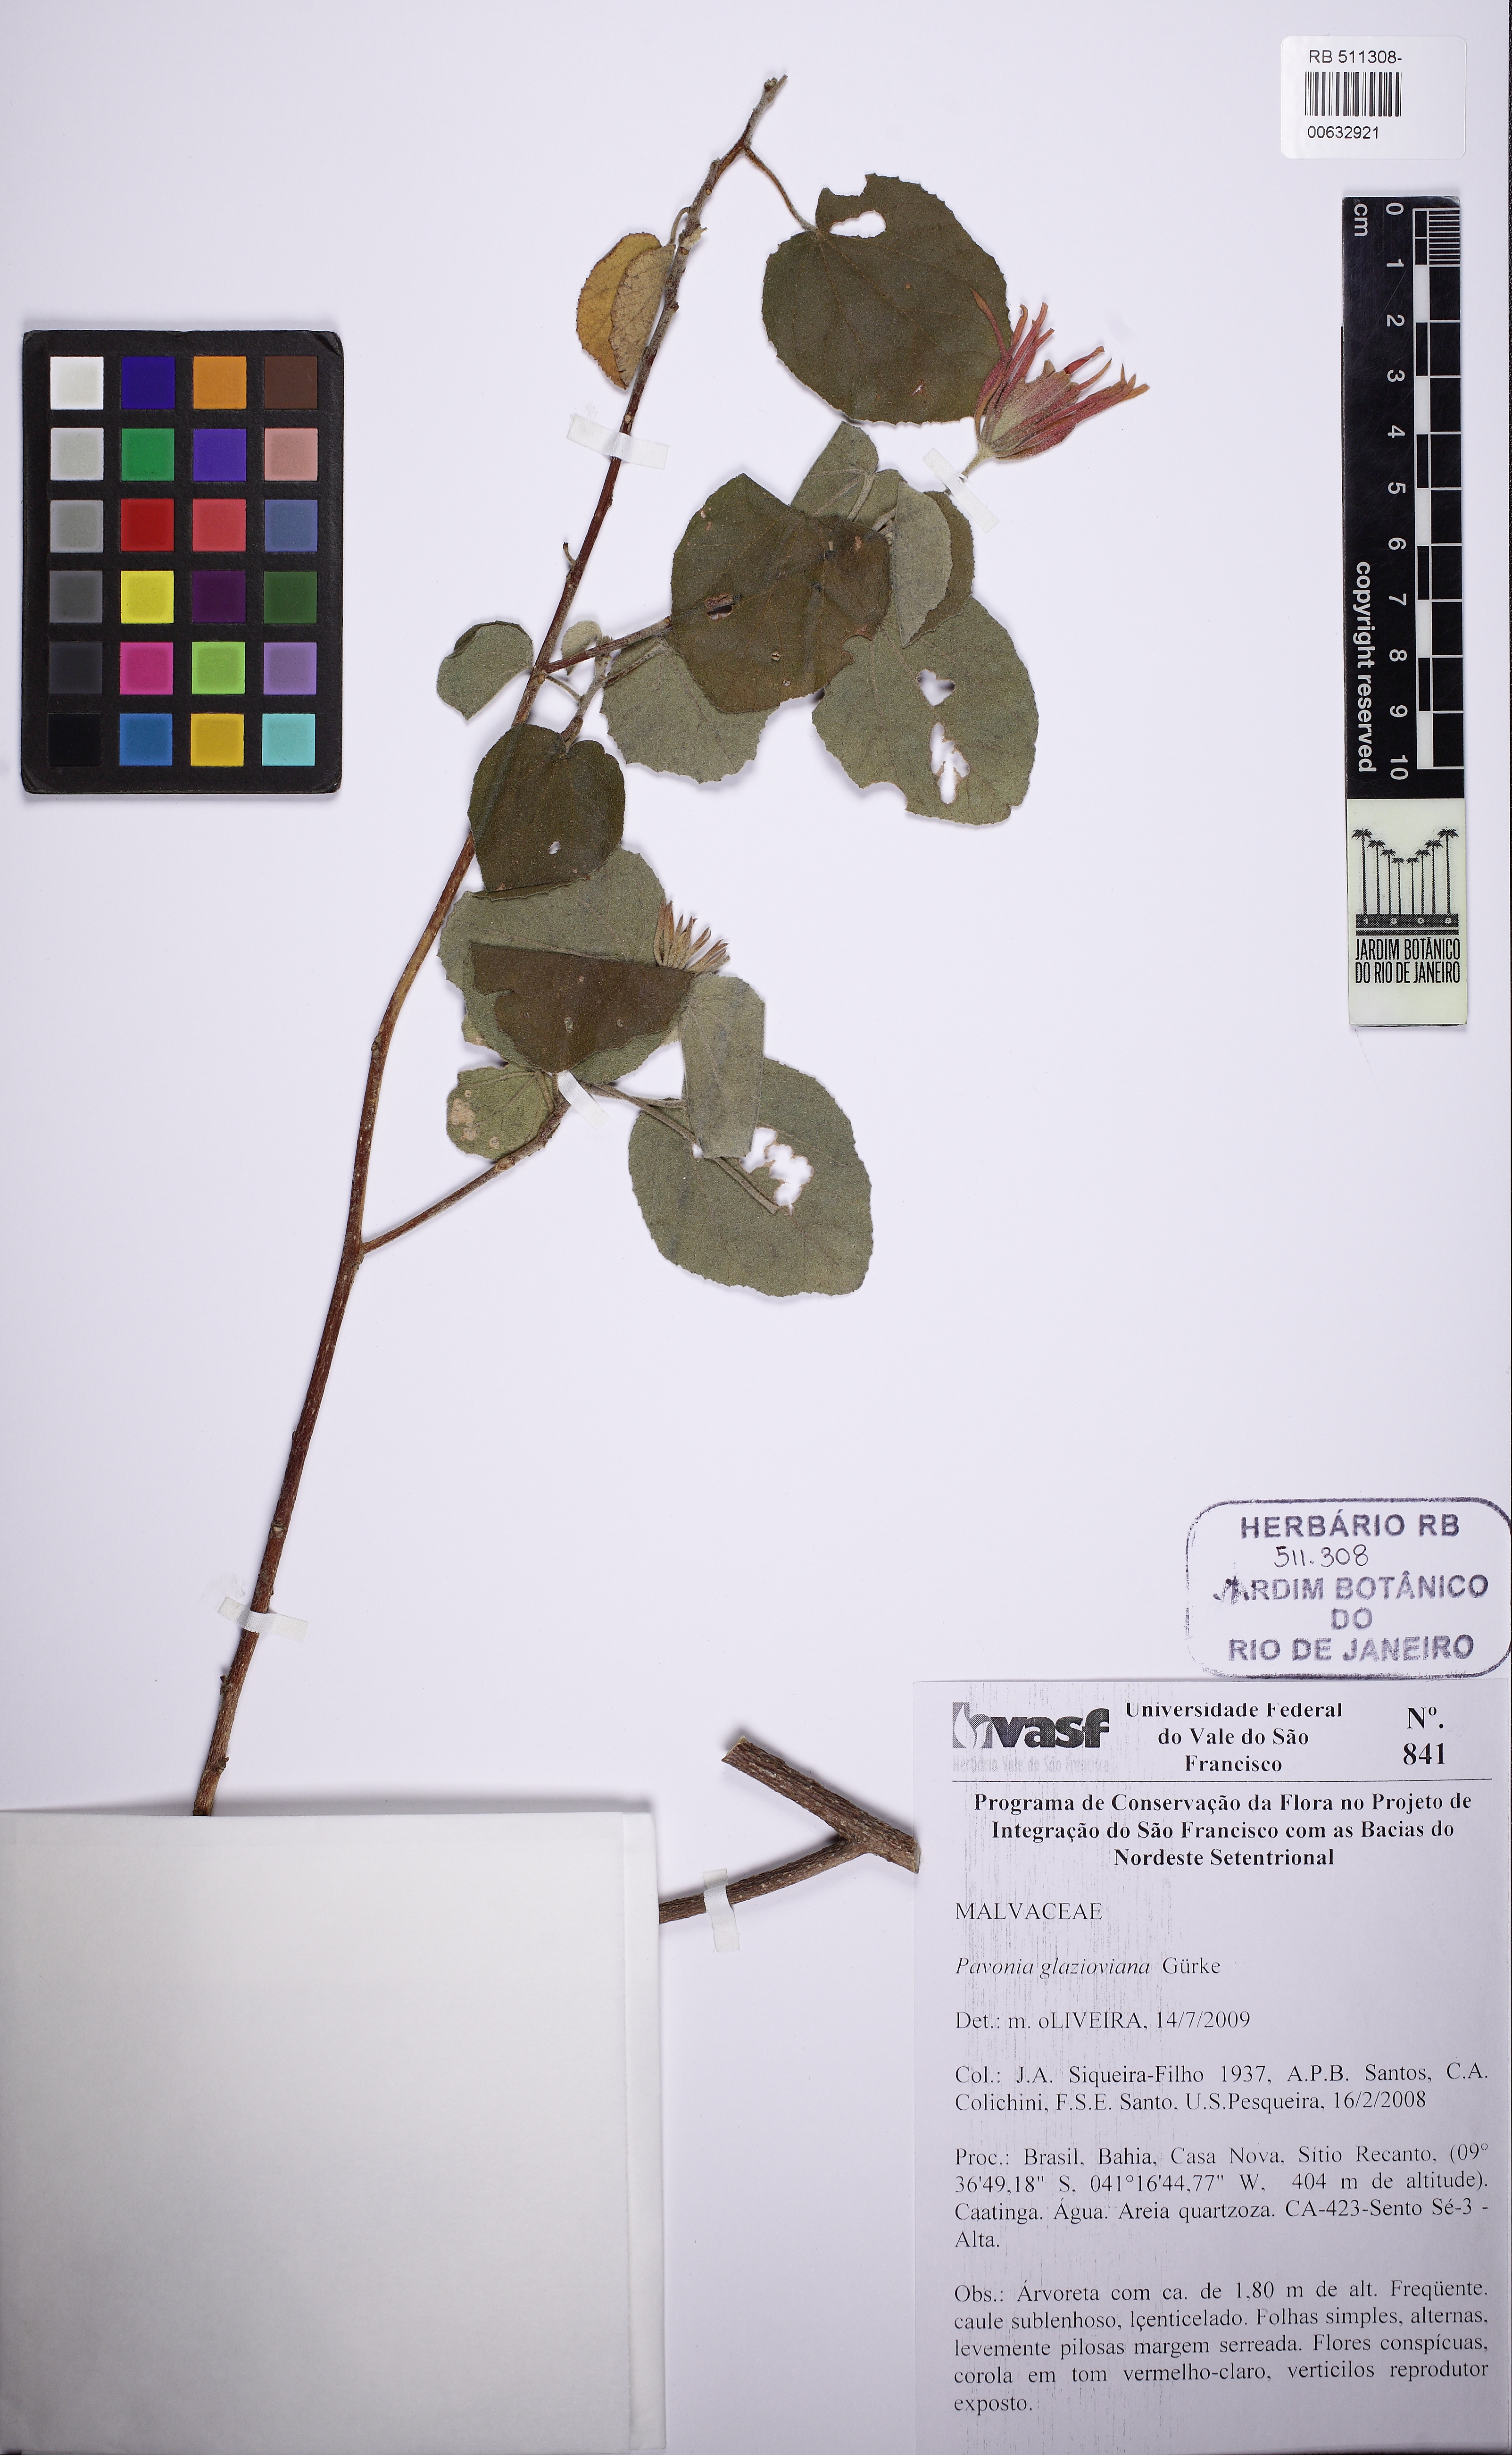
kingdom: Plantae
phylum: Tracheophyta
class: Magnoliopsida
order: Malvales
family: Malvaceae
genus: Pavonia
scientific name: Pavonia glazioviana
